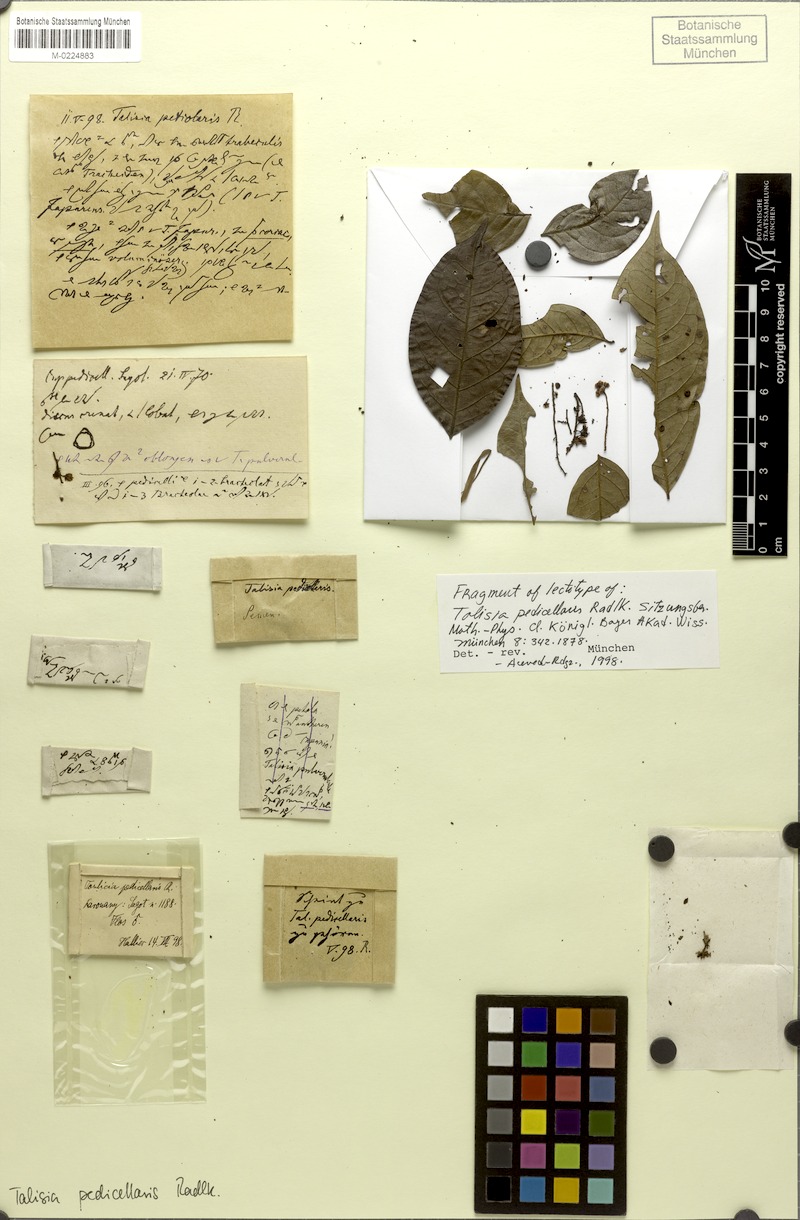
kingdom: Plantae
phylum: Tracheophyta
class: Magnoliopsida
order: Sapindales
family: Sapindaceae
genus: Melicoccus
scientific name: Melicoccus pedicellaris
